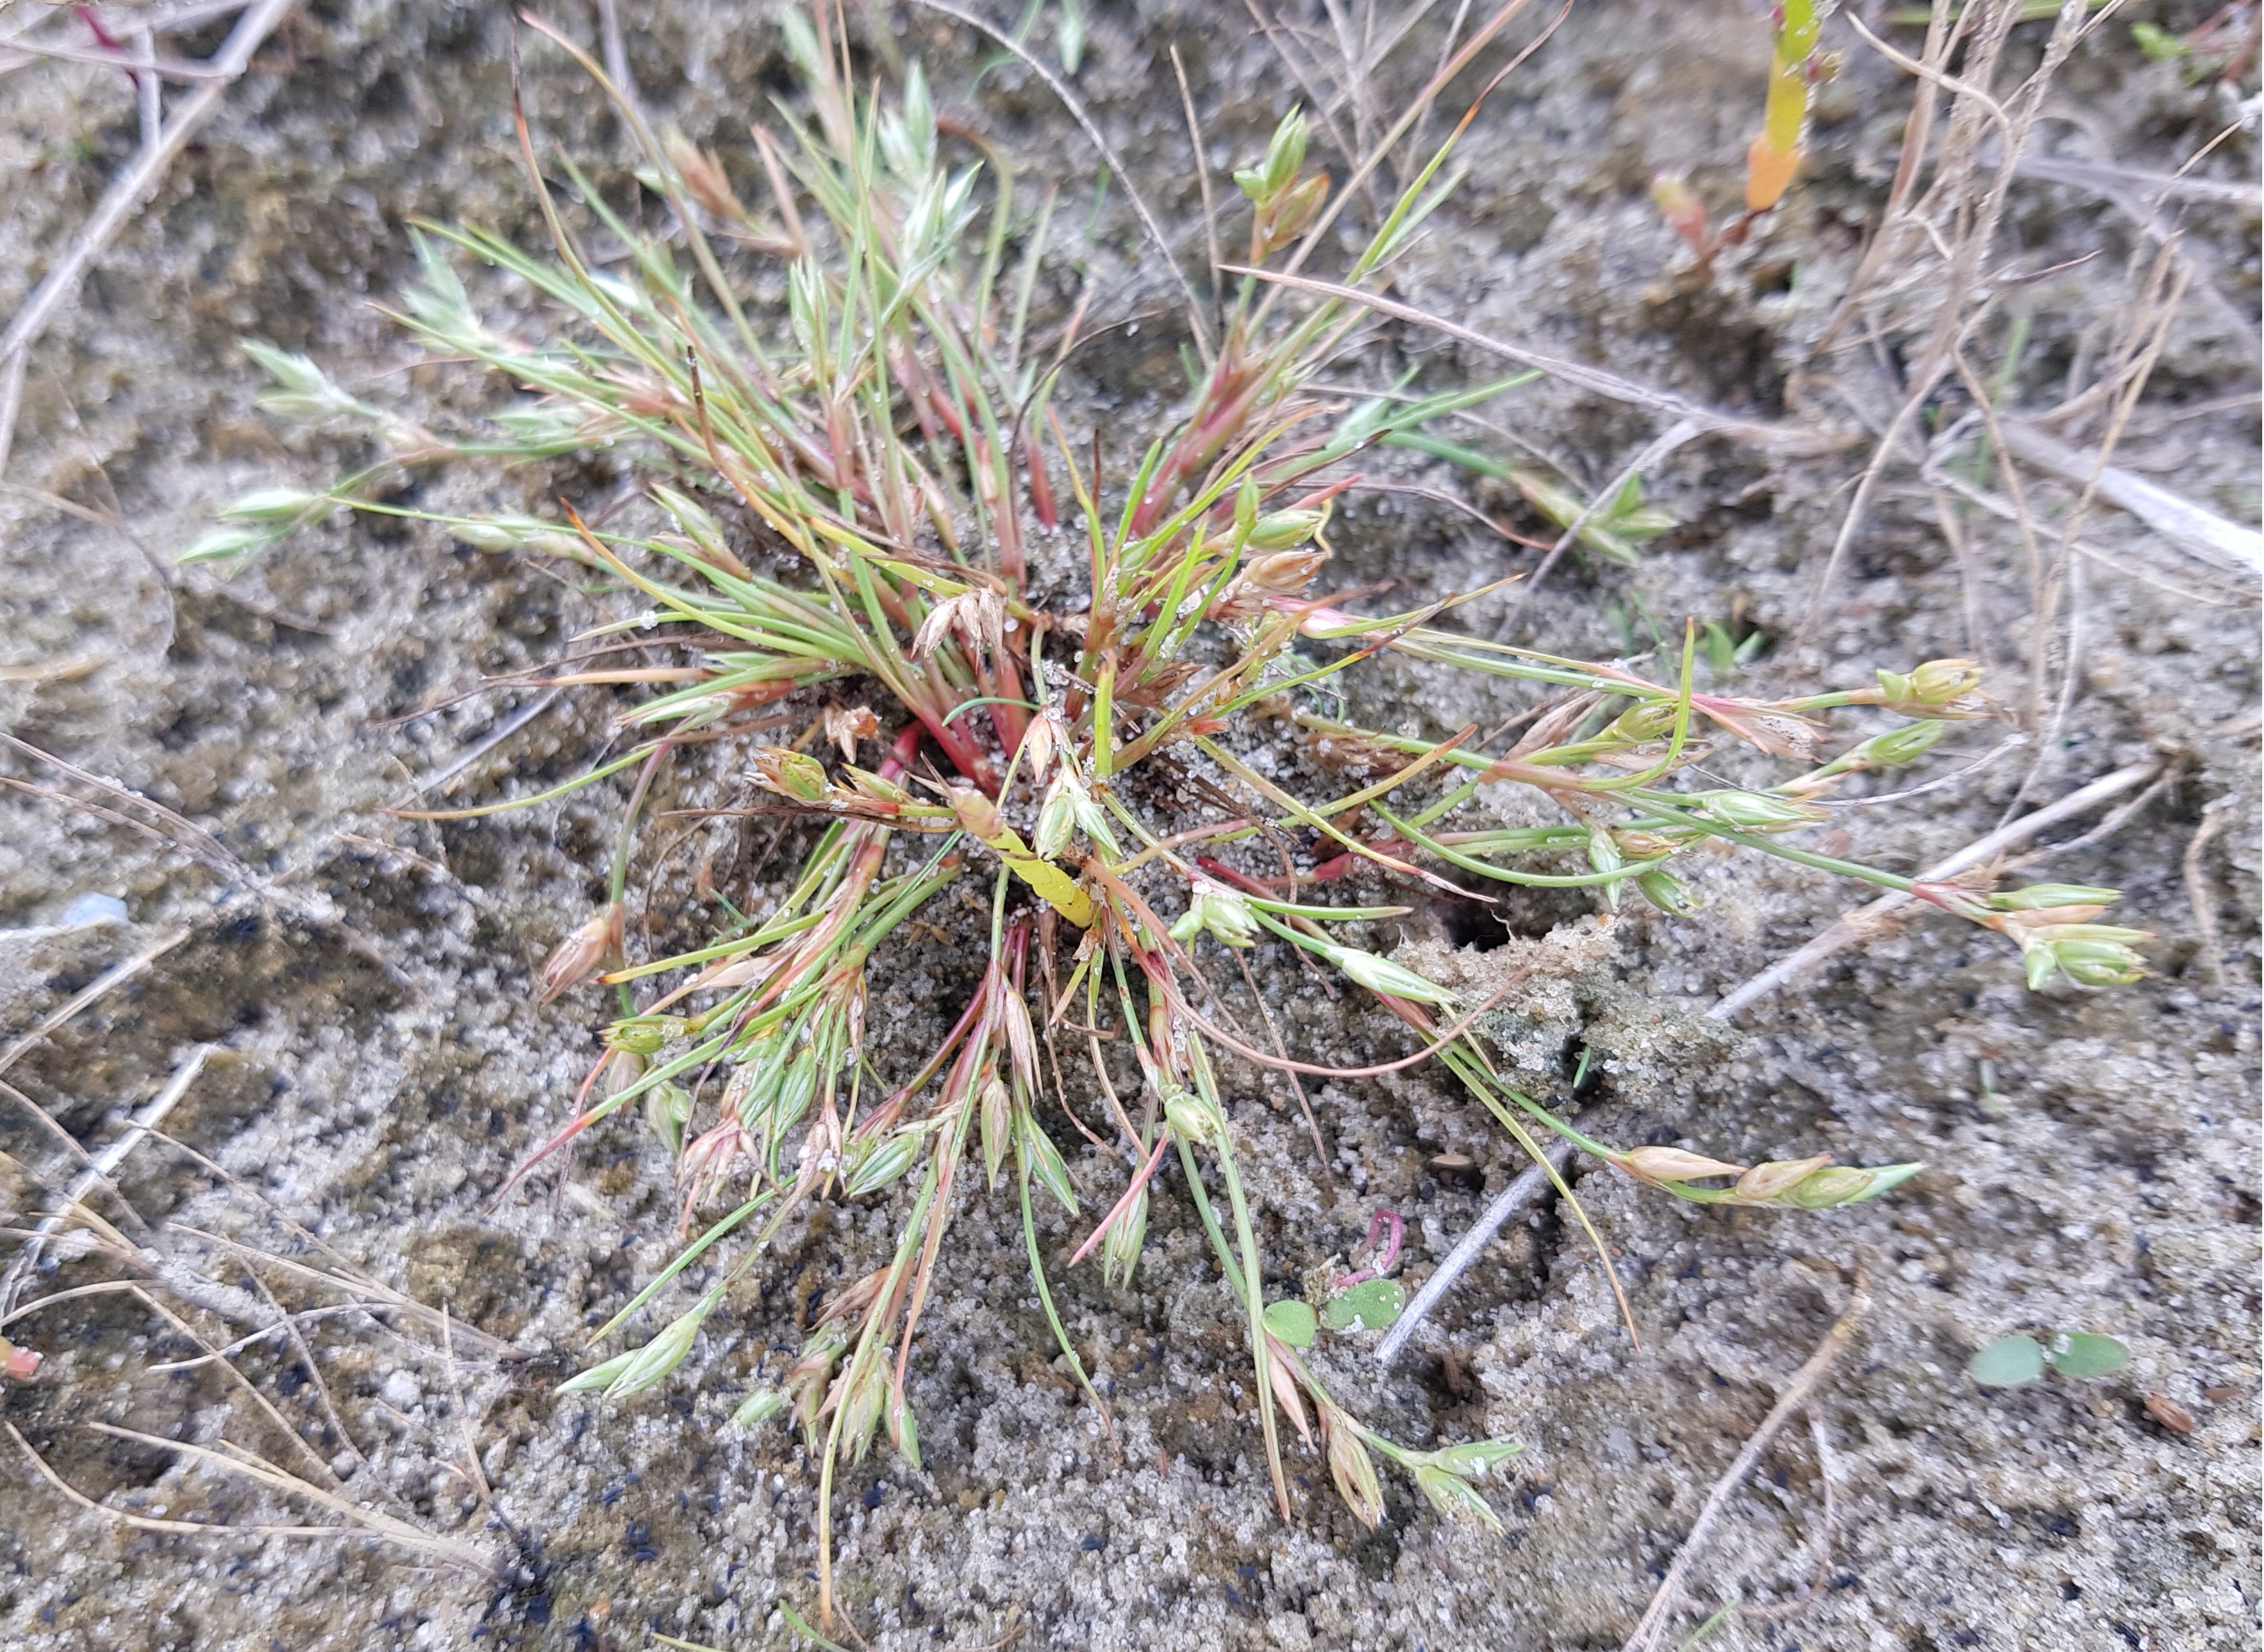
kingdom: Plantae
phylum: Tracheophyta
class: Liliopsida
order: Poales
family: Juncaceae
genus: Juncus
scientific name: Juncus ranarius
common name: Klæg-siv
